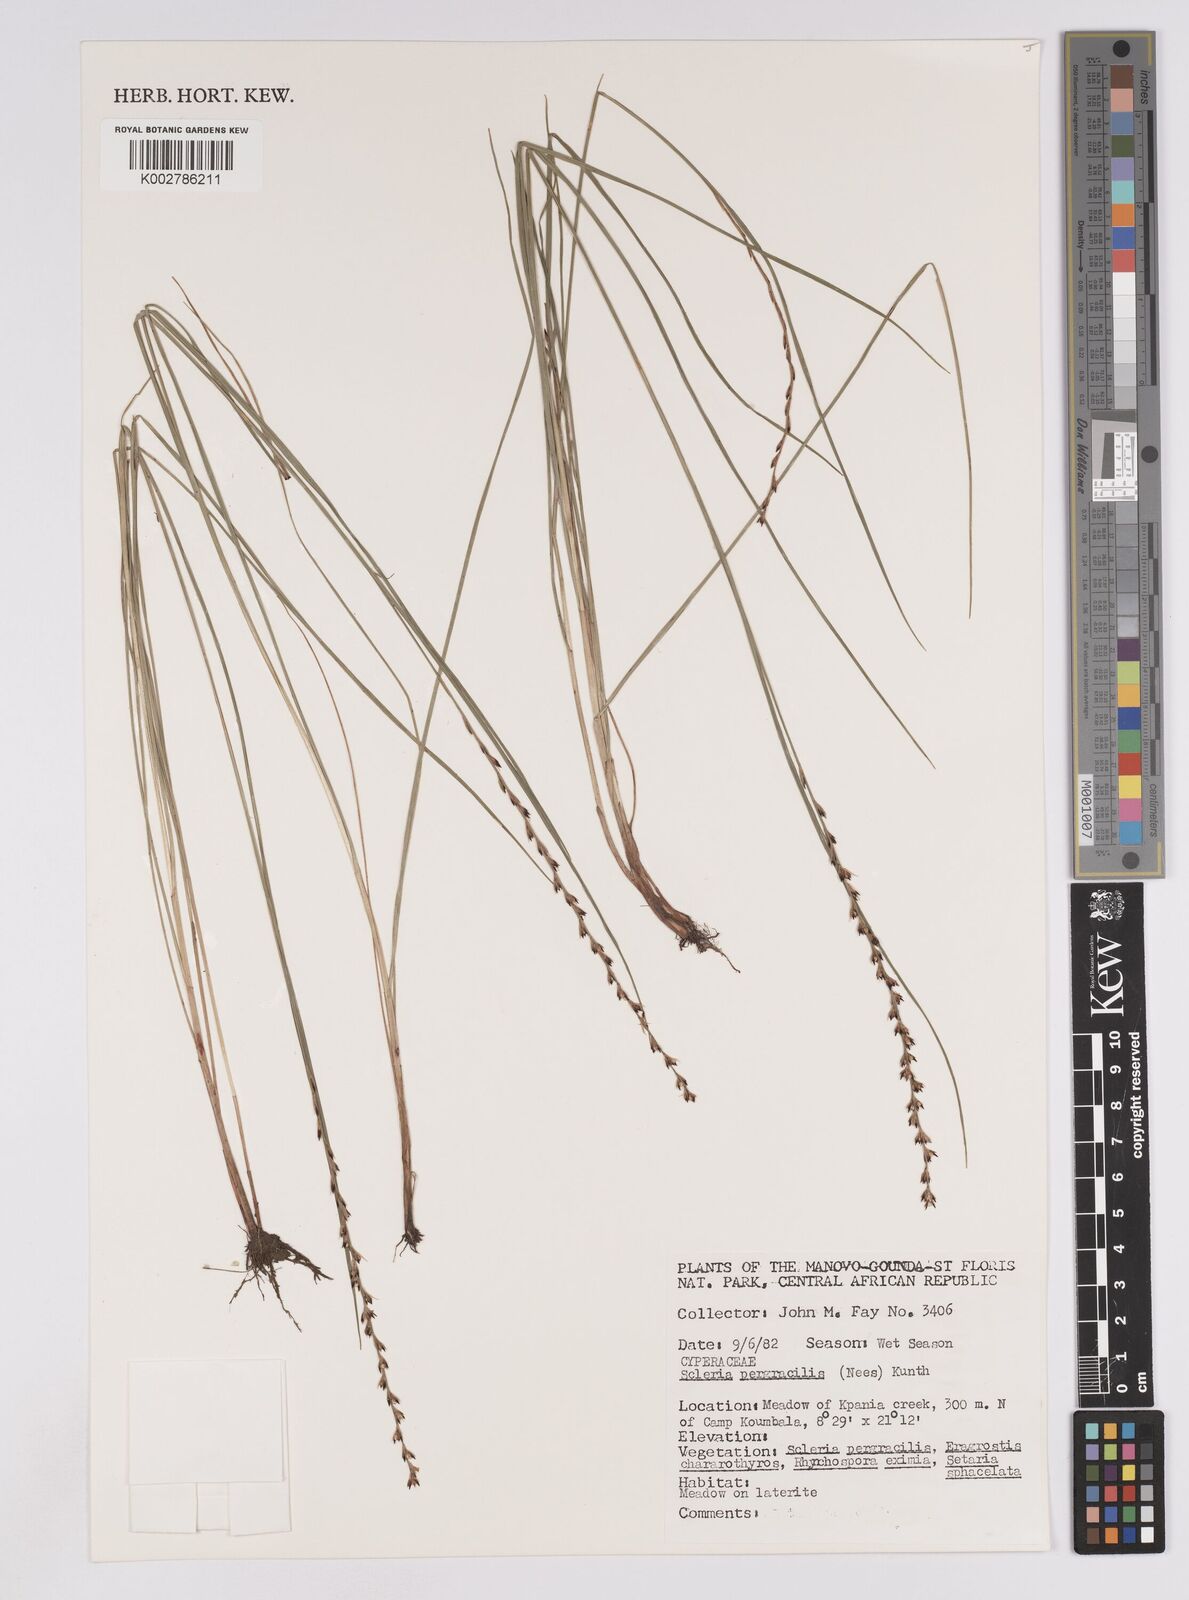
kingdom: Plantae
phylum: Tracheophyta
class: Liliopsida
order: Poales
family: Cyperaceae
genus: Scleria
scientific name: Scleria pergracilis
